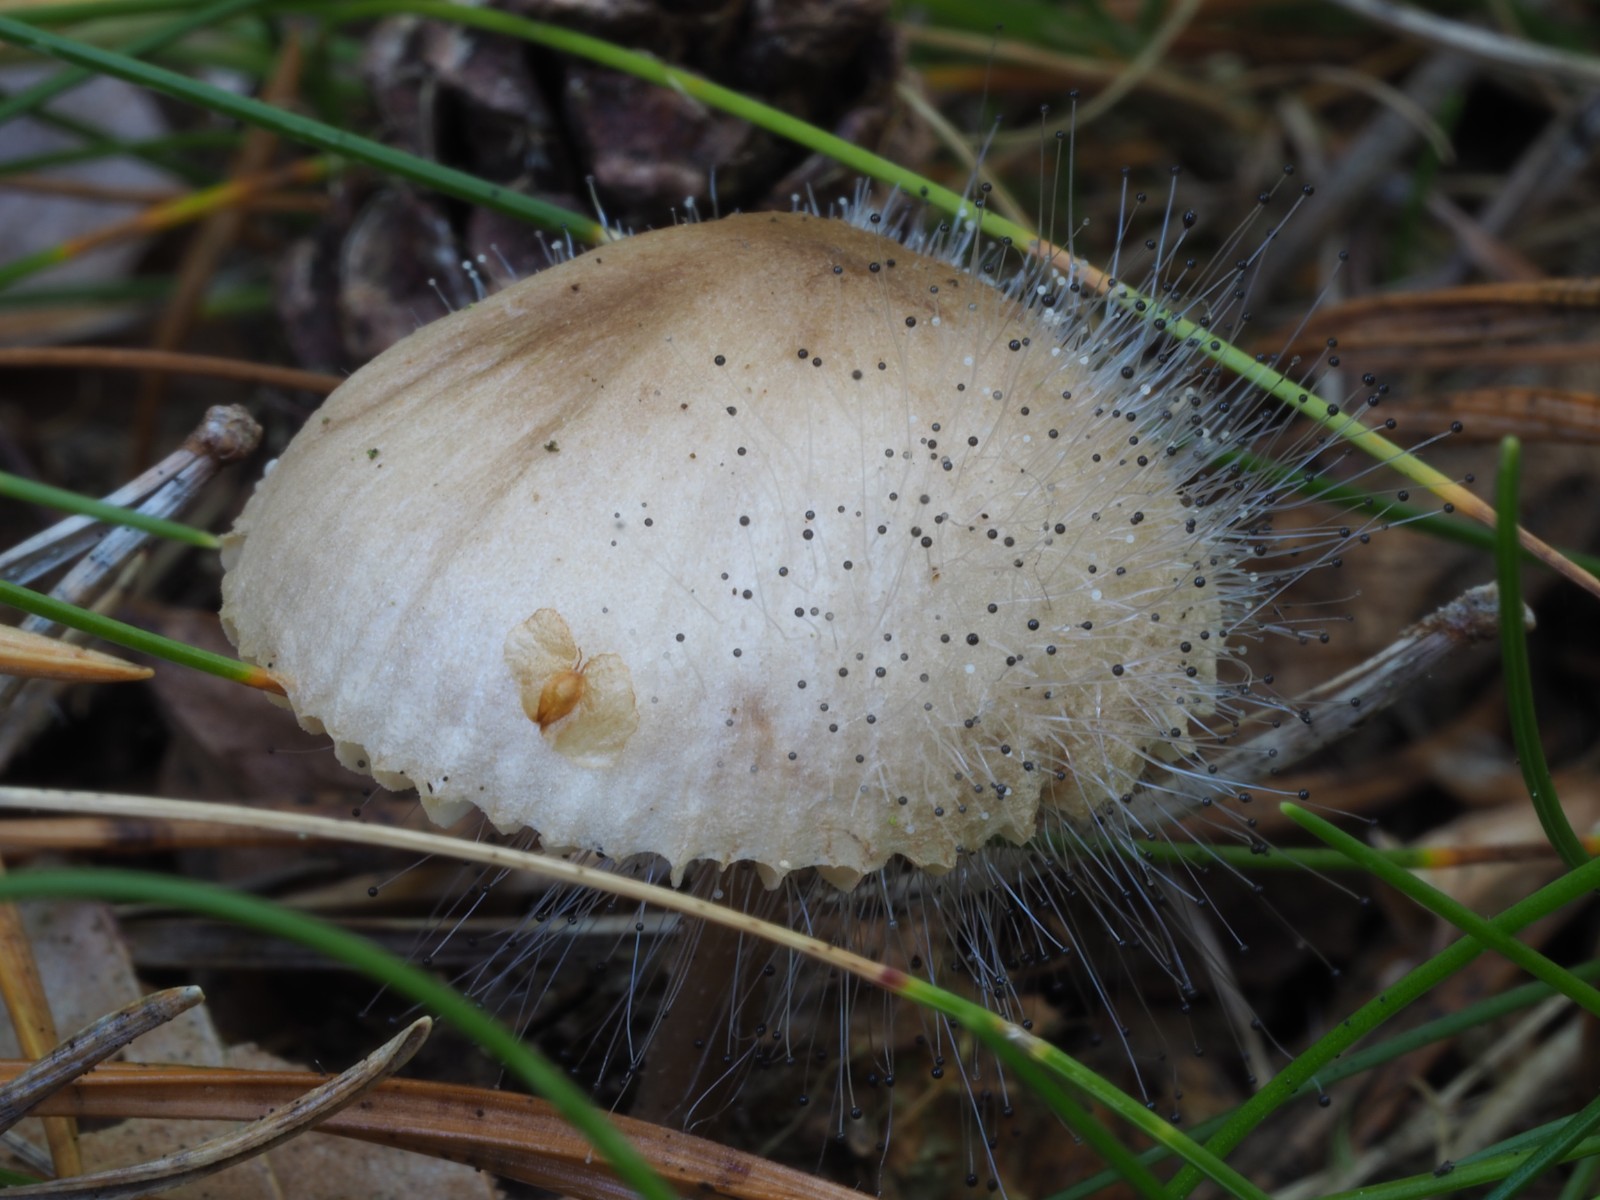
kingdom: Fungi
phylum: Mucoromycota
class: Mucoromycetes
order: Mucorales
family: Phycomycetaceae
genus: Spinellus
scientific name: Spinellus fusiger
